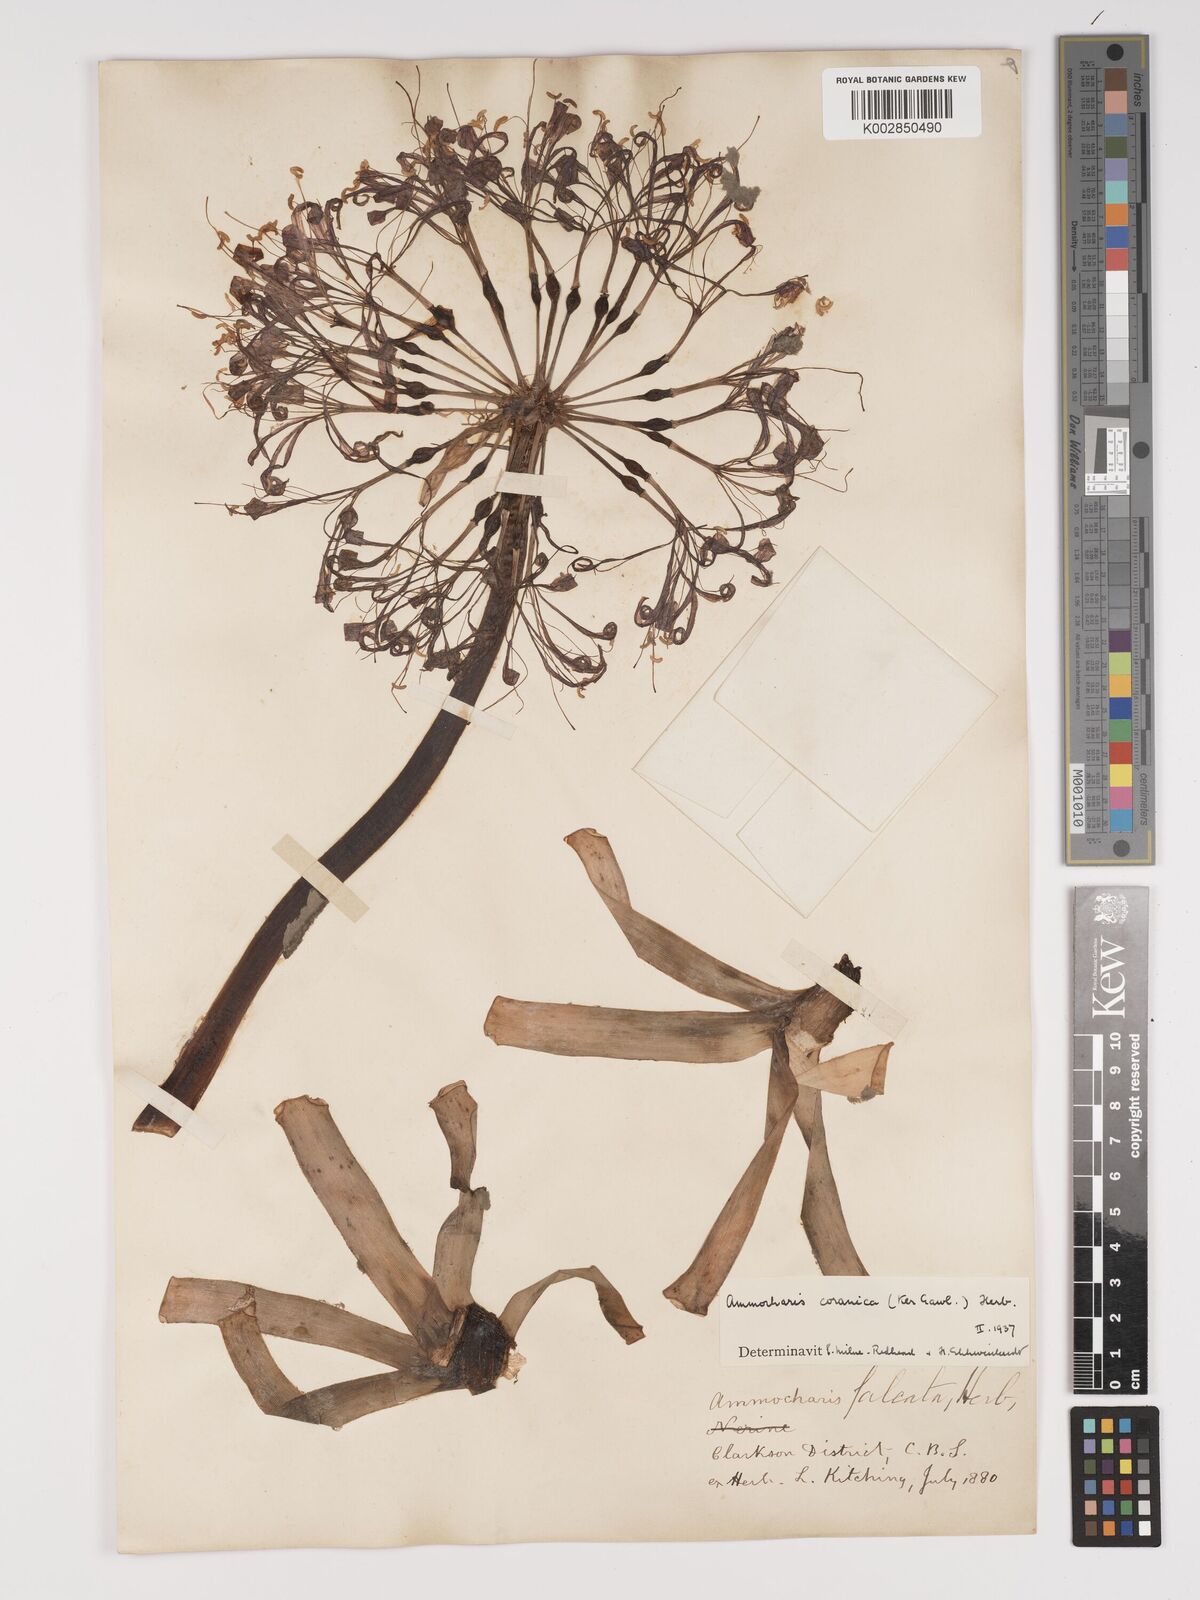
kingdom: Plantae
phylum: Tracheophyta
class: Liliopsida
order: Asparagales
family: Amaryllidaceae
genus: Ammocharis
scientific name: Ammocharis coranica
